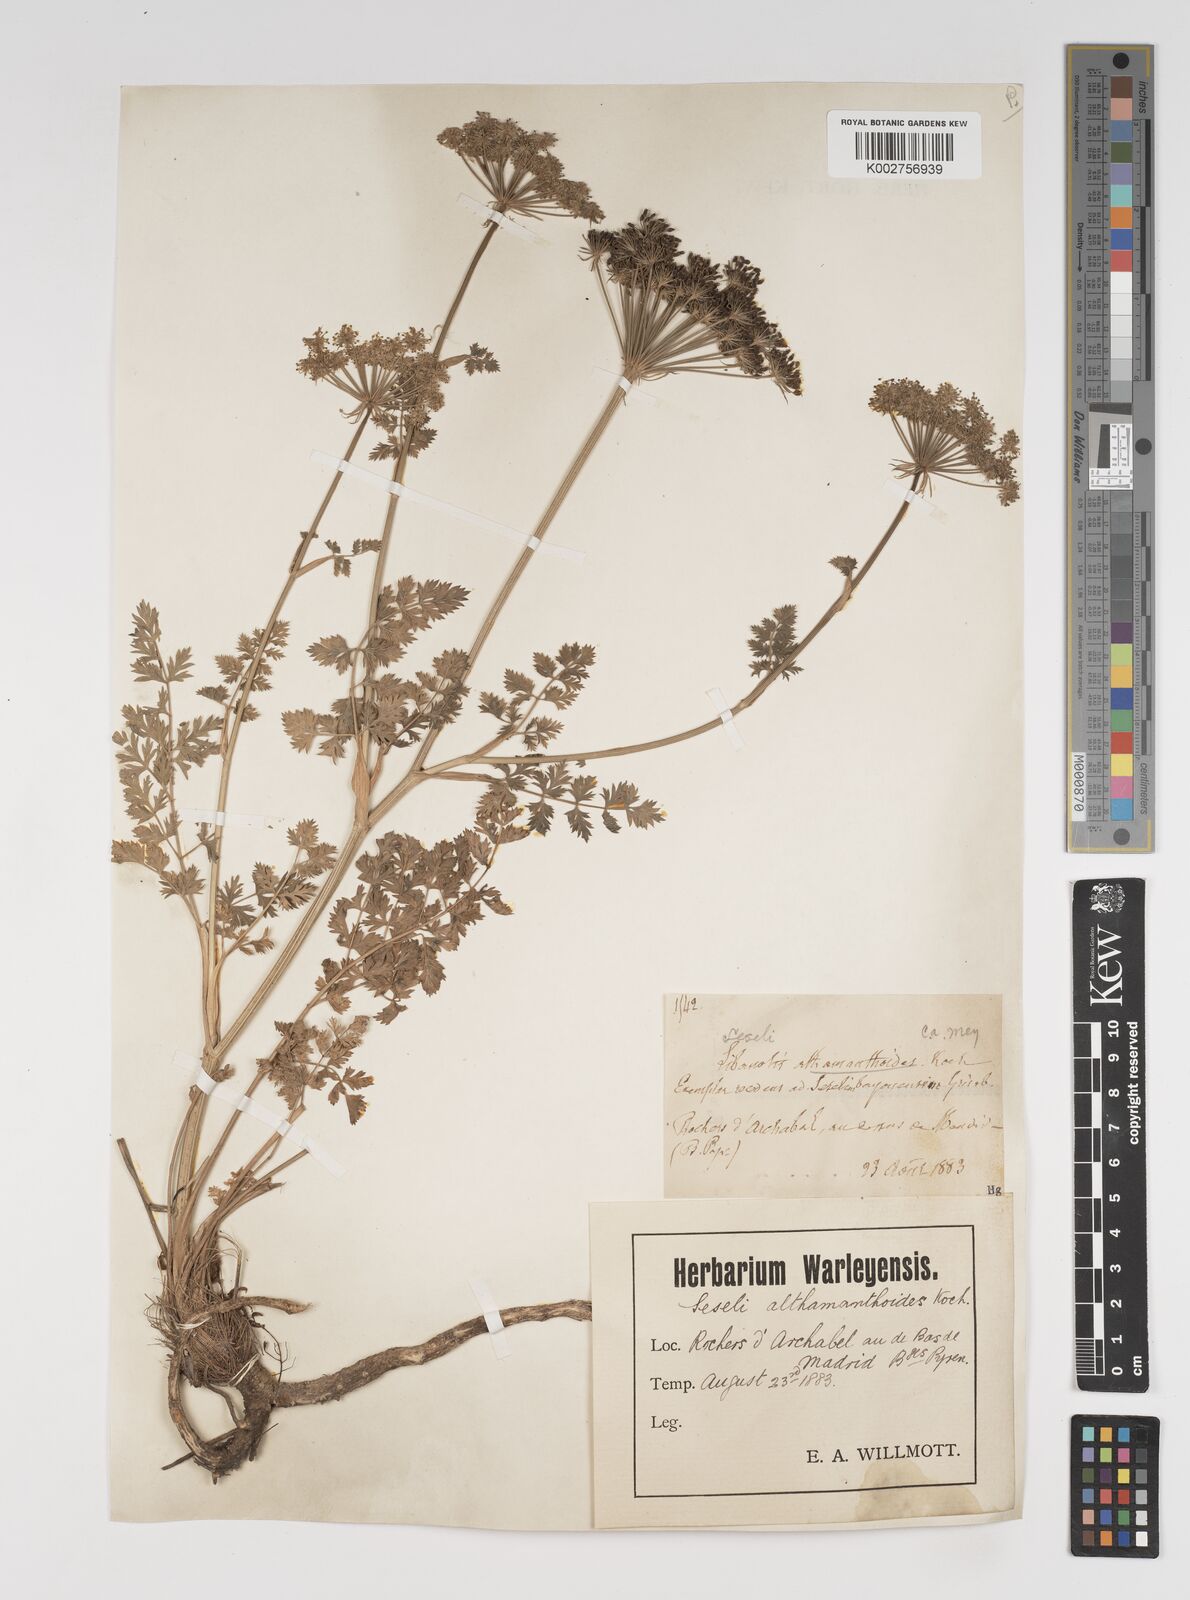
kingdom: Plantae
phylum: Tracheophyta
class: Magnoliopsida
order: Apiales
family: Apiaceae
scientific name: Apiaceae
